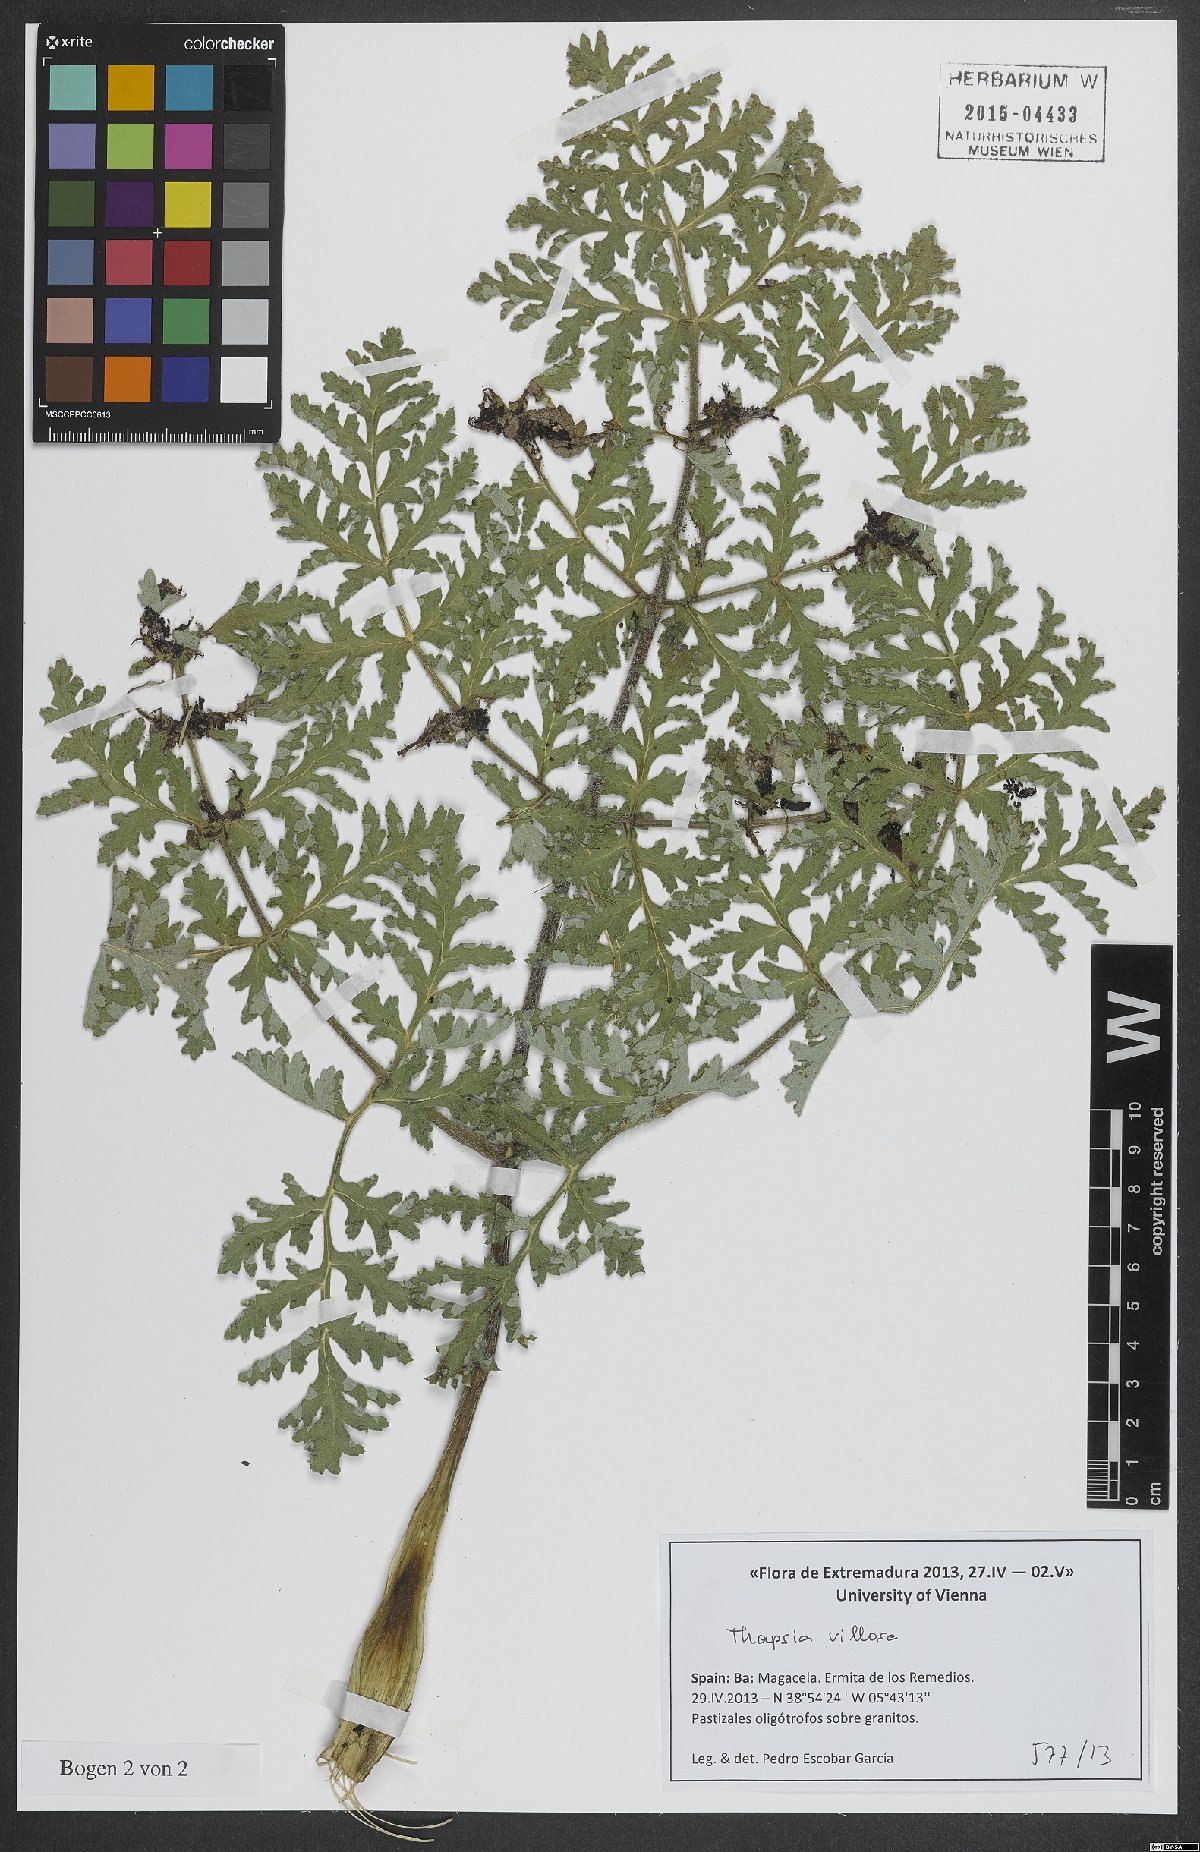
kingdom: Plantae
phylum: Tracheophyta
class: Magnoliopsida
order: Apiales
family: Apiaceae
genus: Thapsia
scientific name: Thapsia villosa
